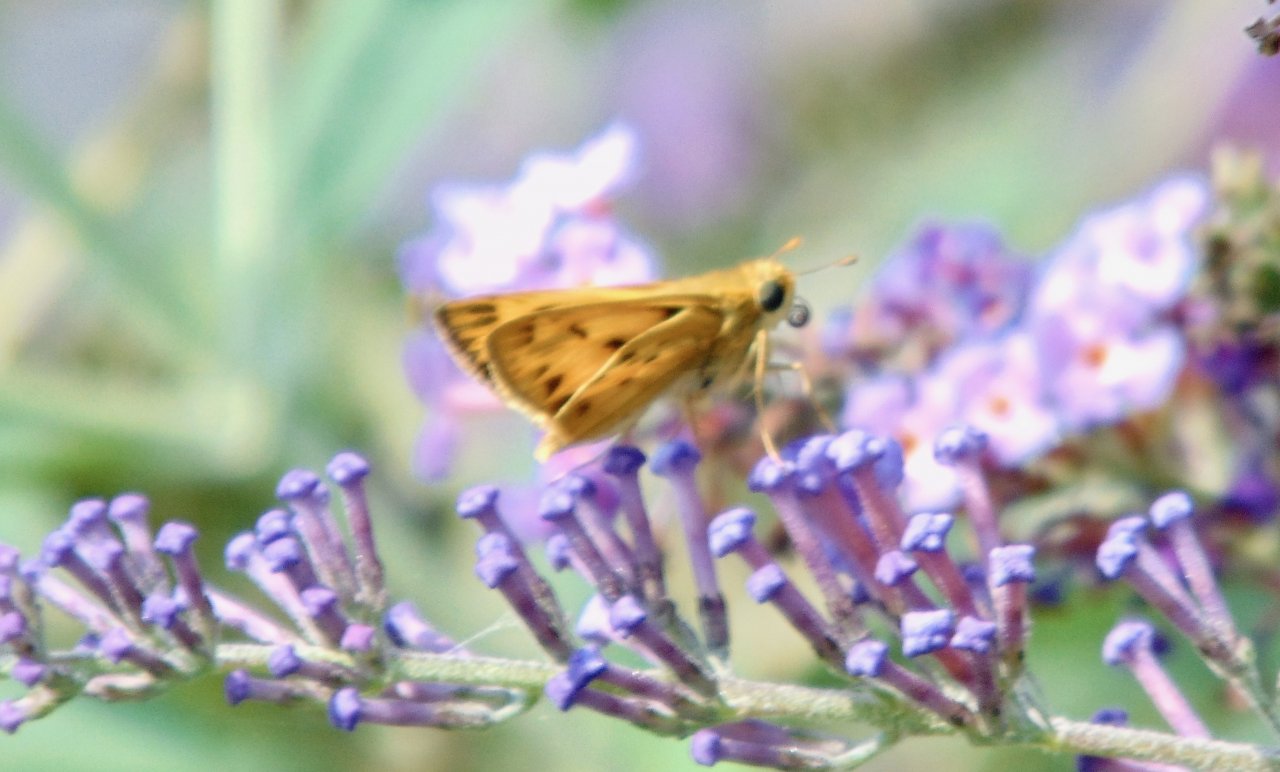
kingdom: Animalia
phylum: Arthropoda
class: Insecta
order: Lepidoptera
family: Hesperiidae
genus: Hylephila
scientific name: Hylephila phyleus
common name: Fiery Skipper
